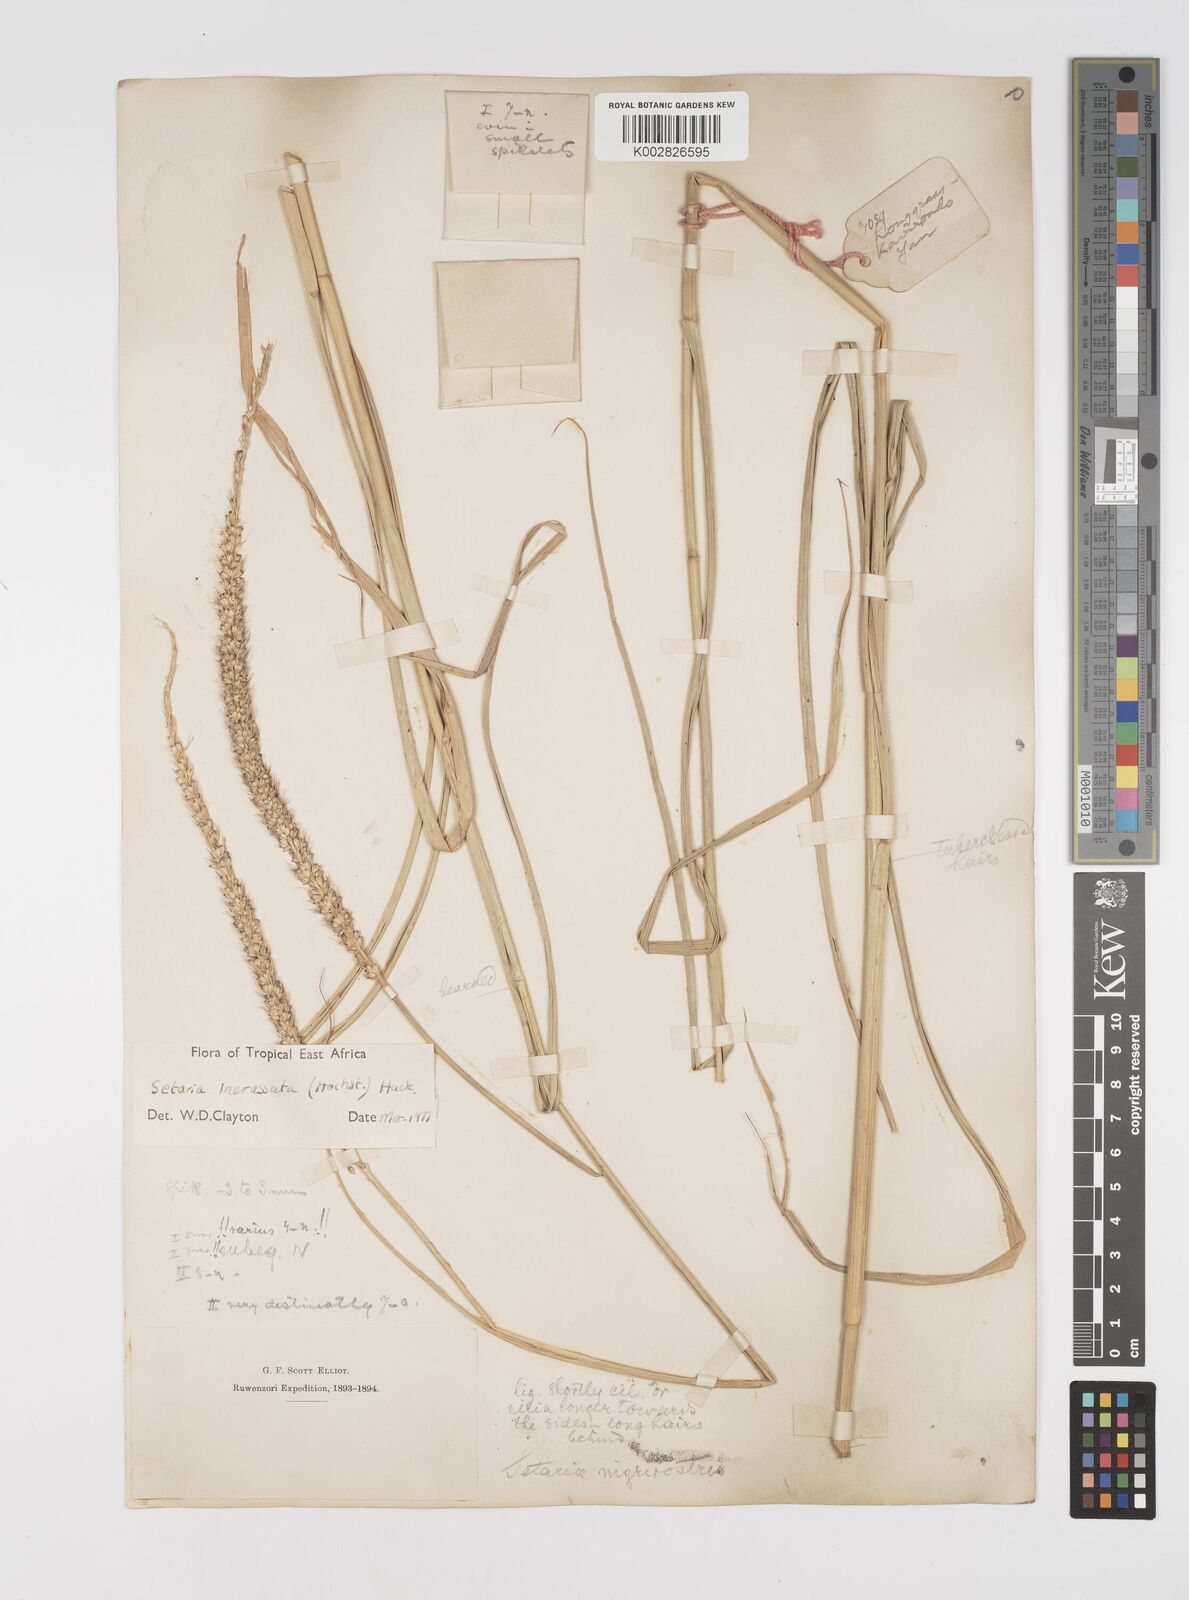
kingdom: Plantae
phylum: Tracheophyta
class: Liliopsida
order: Poales
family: Poaceae
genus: Setaria
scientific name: Setaria incrassata
